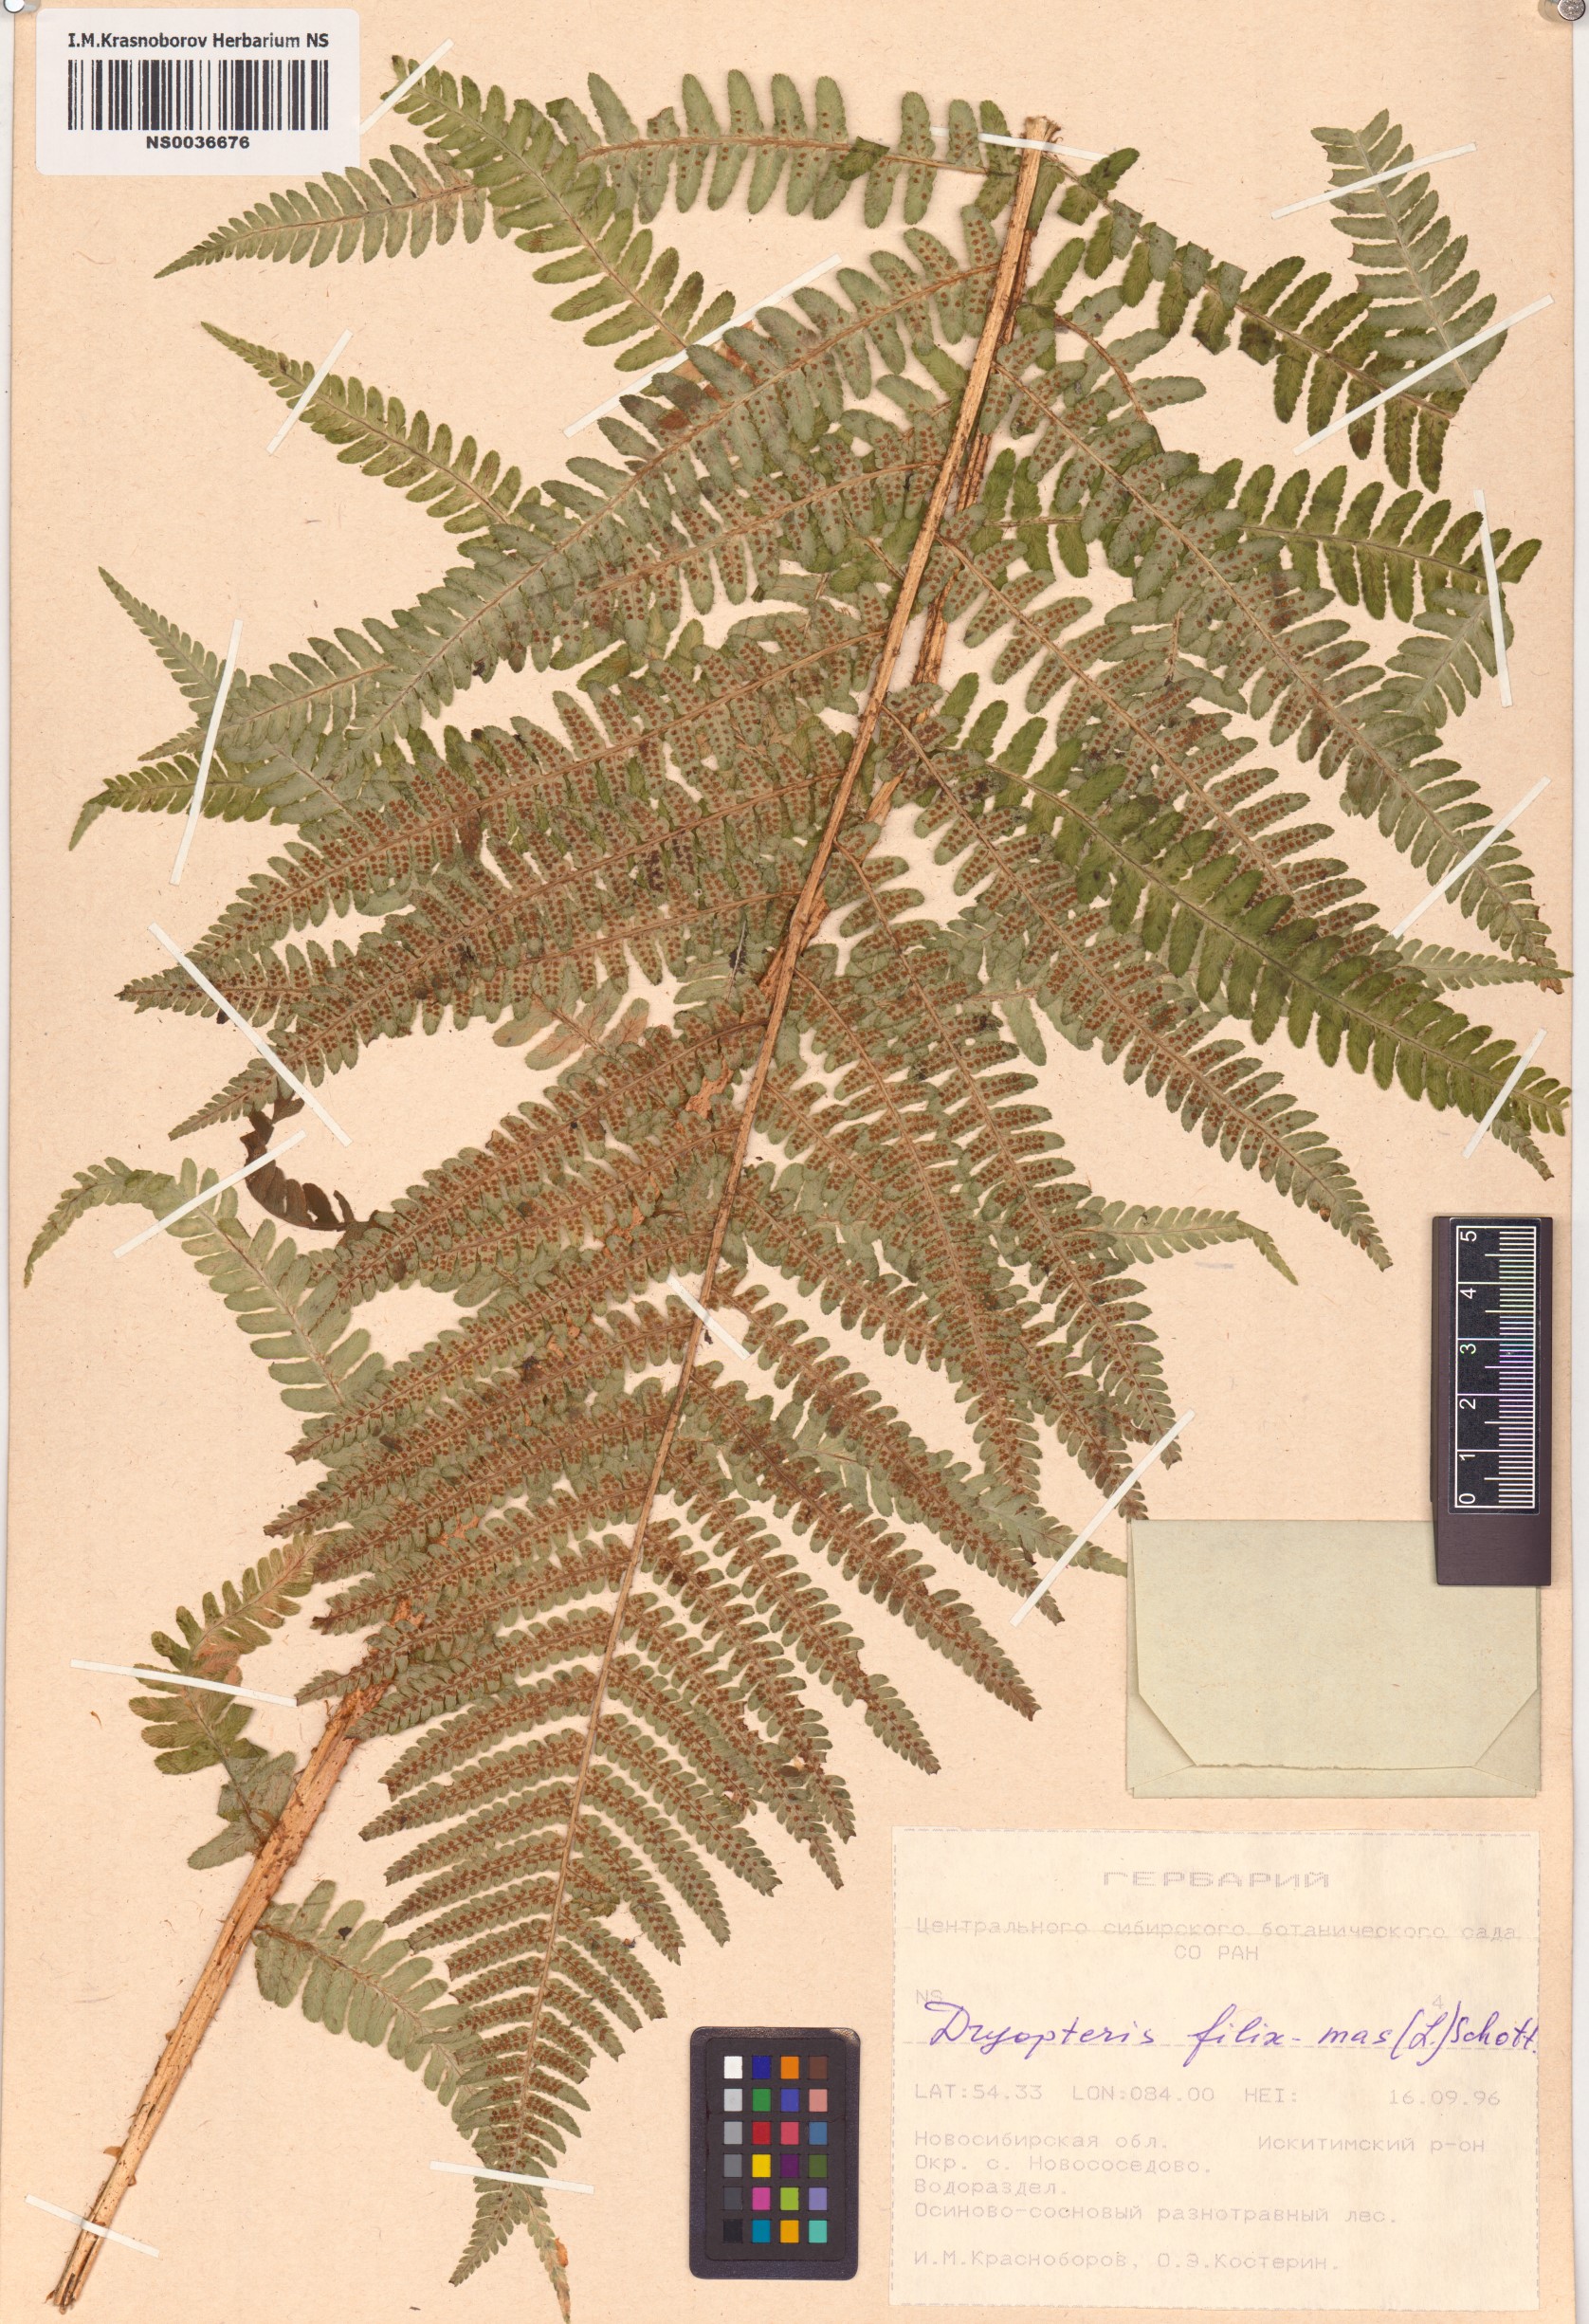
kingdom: Plantae
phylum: Tracheophyta
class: Polypodiopsida
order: Polypodiales
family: Dryopteridaceae
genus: Dryopteris
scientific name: Dryopteris filix-mas
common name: Male fern
